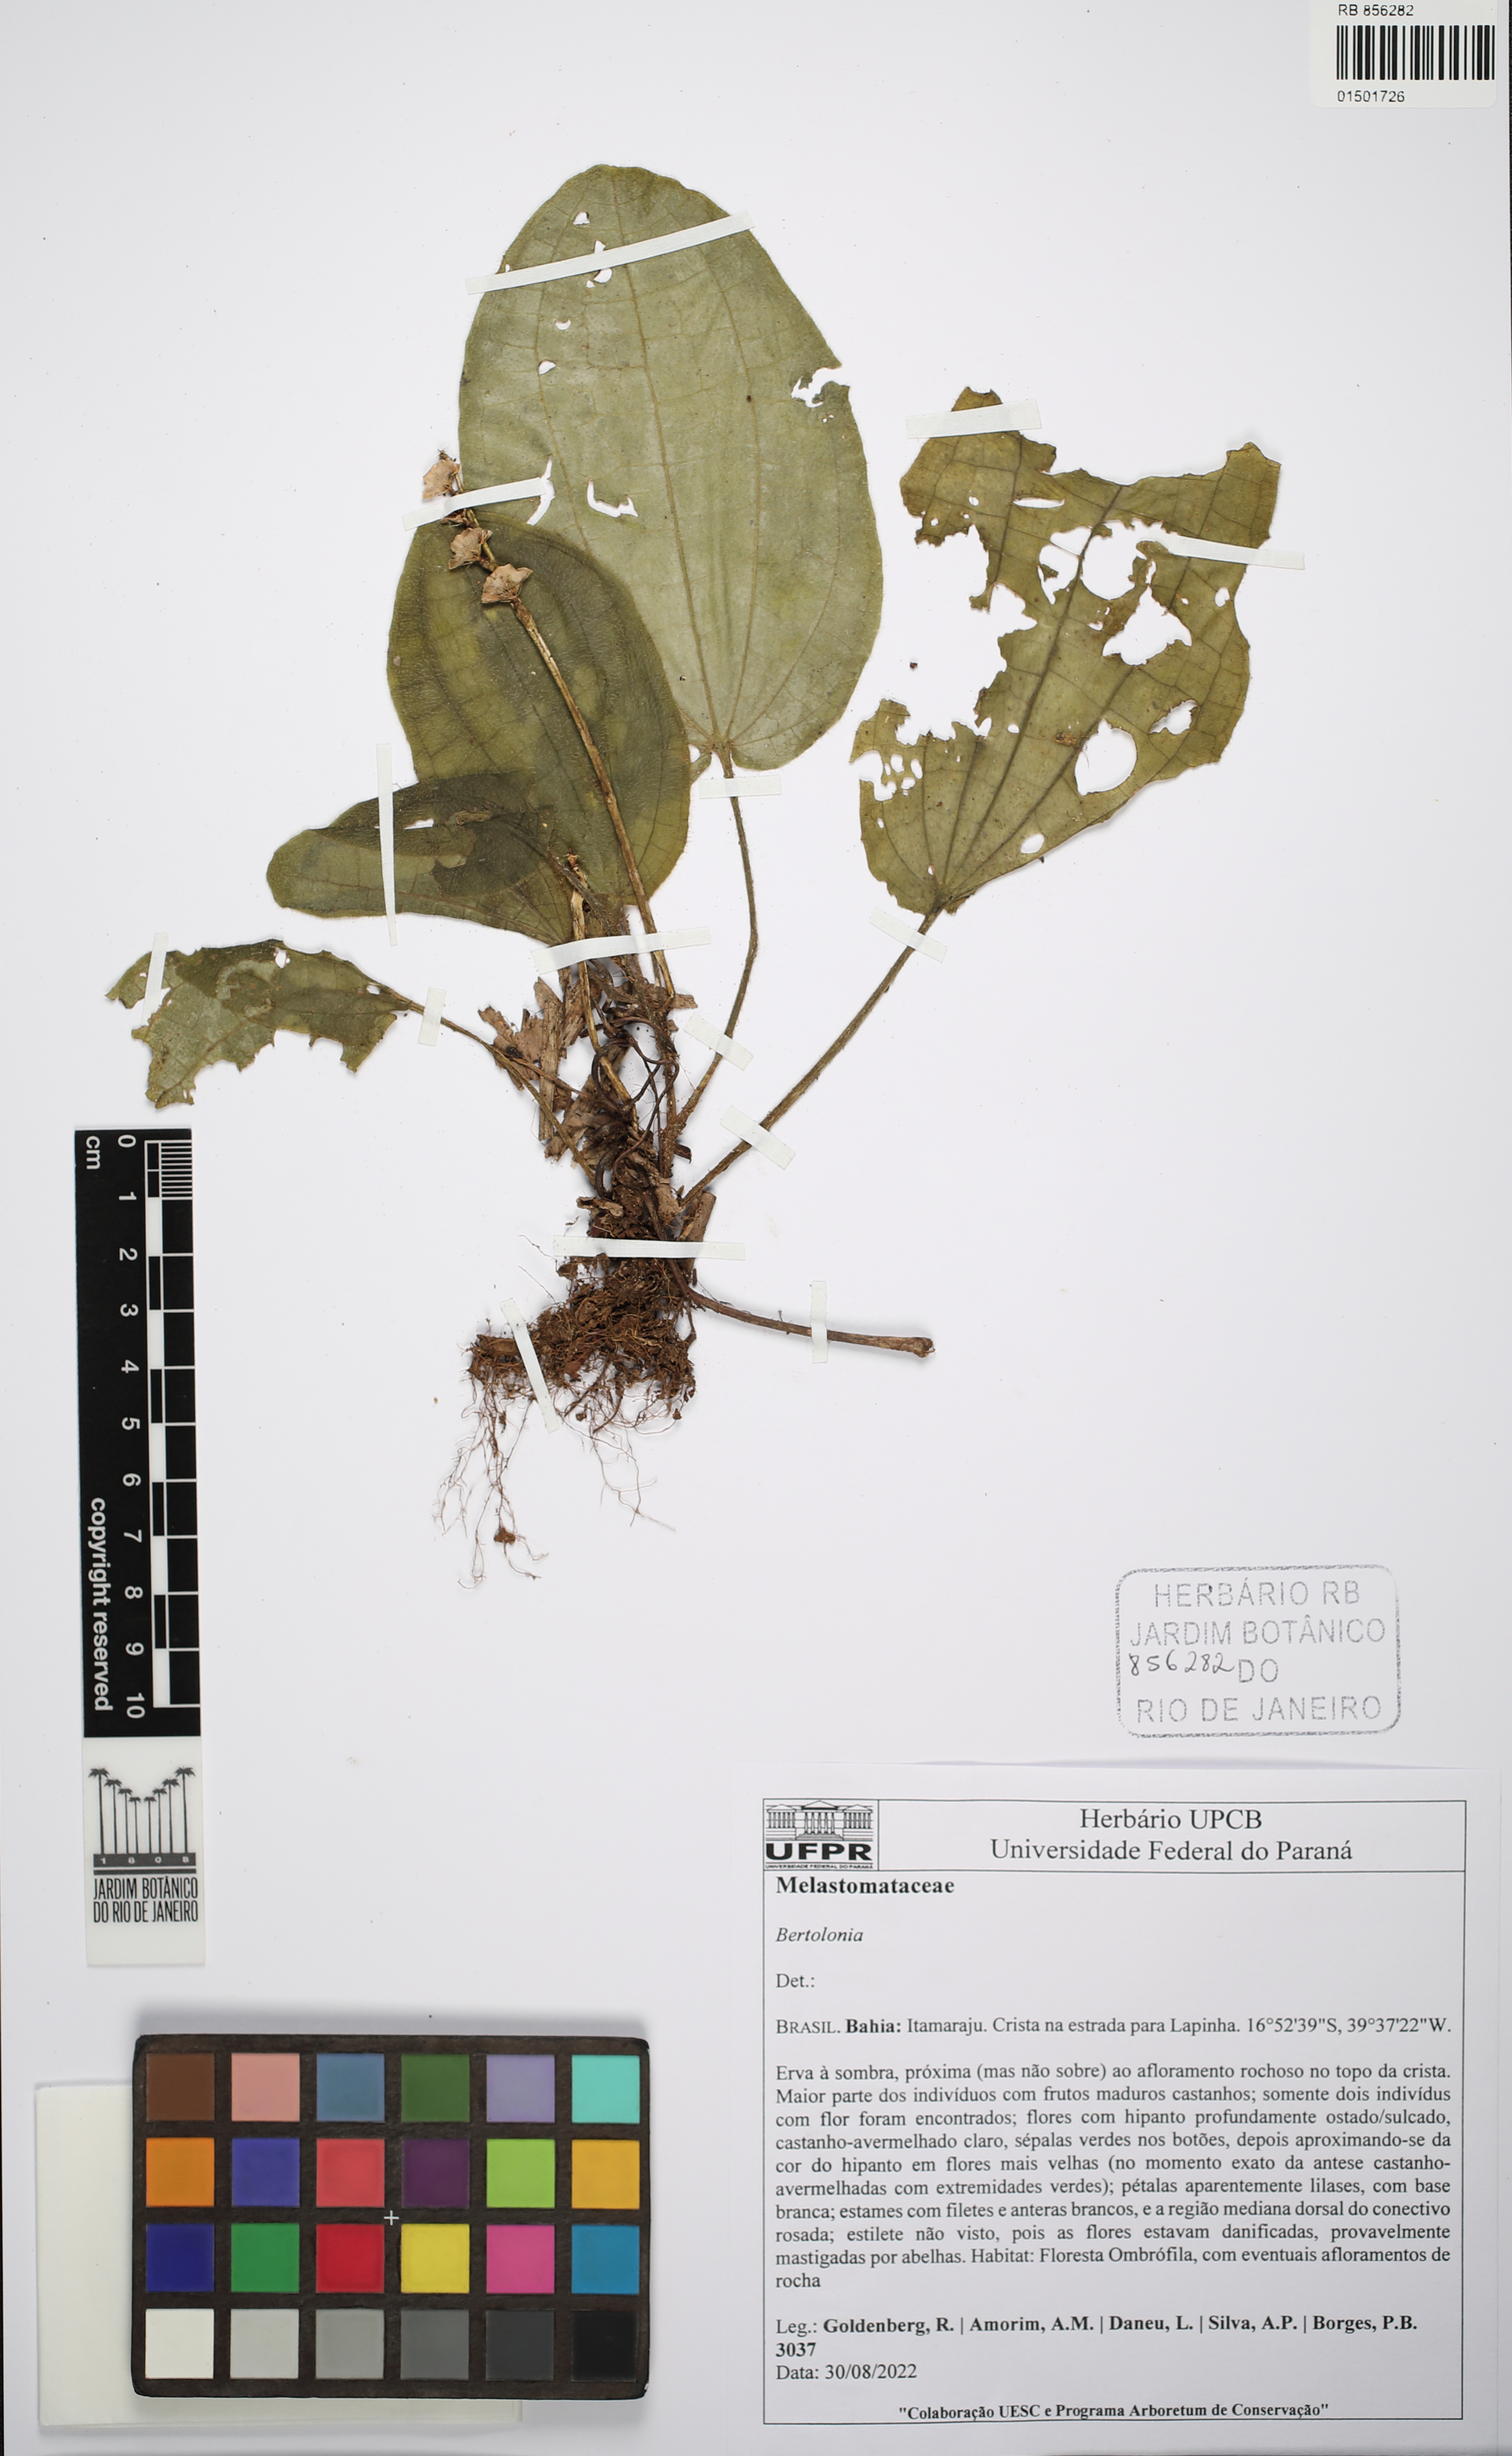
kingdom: Plantae
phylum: Tracheophyta
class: Magnoliopsida
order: Myrtales
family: Melastomataceae
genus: Bertolonia
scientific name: Bertolonia
